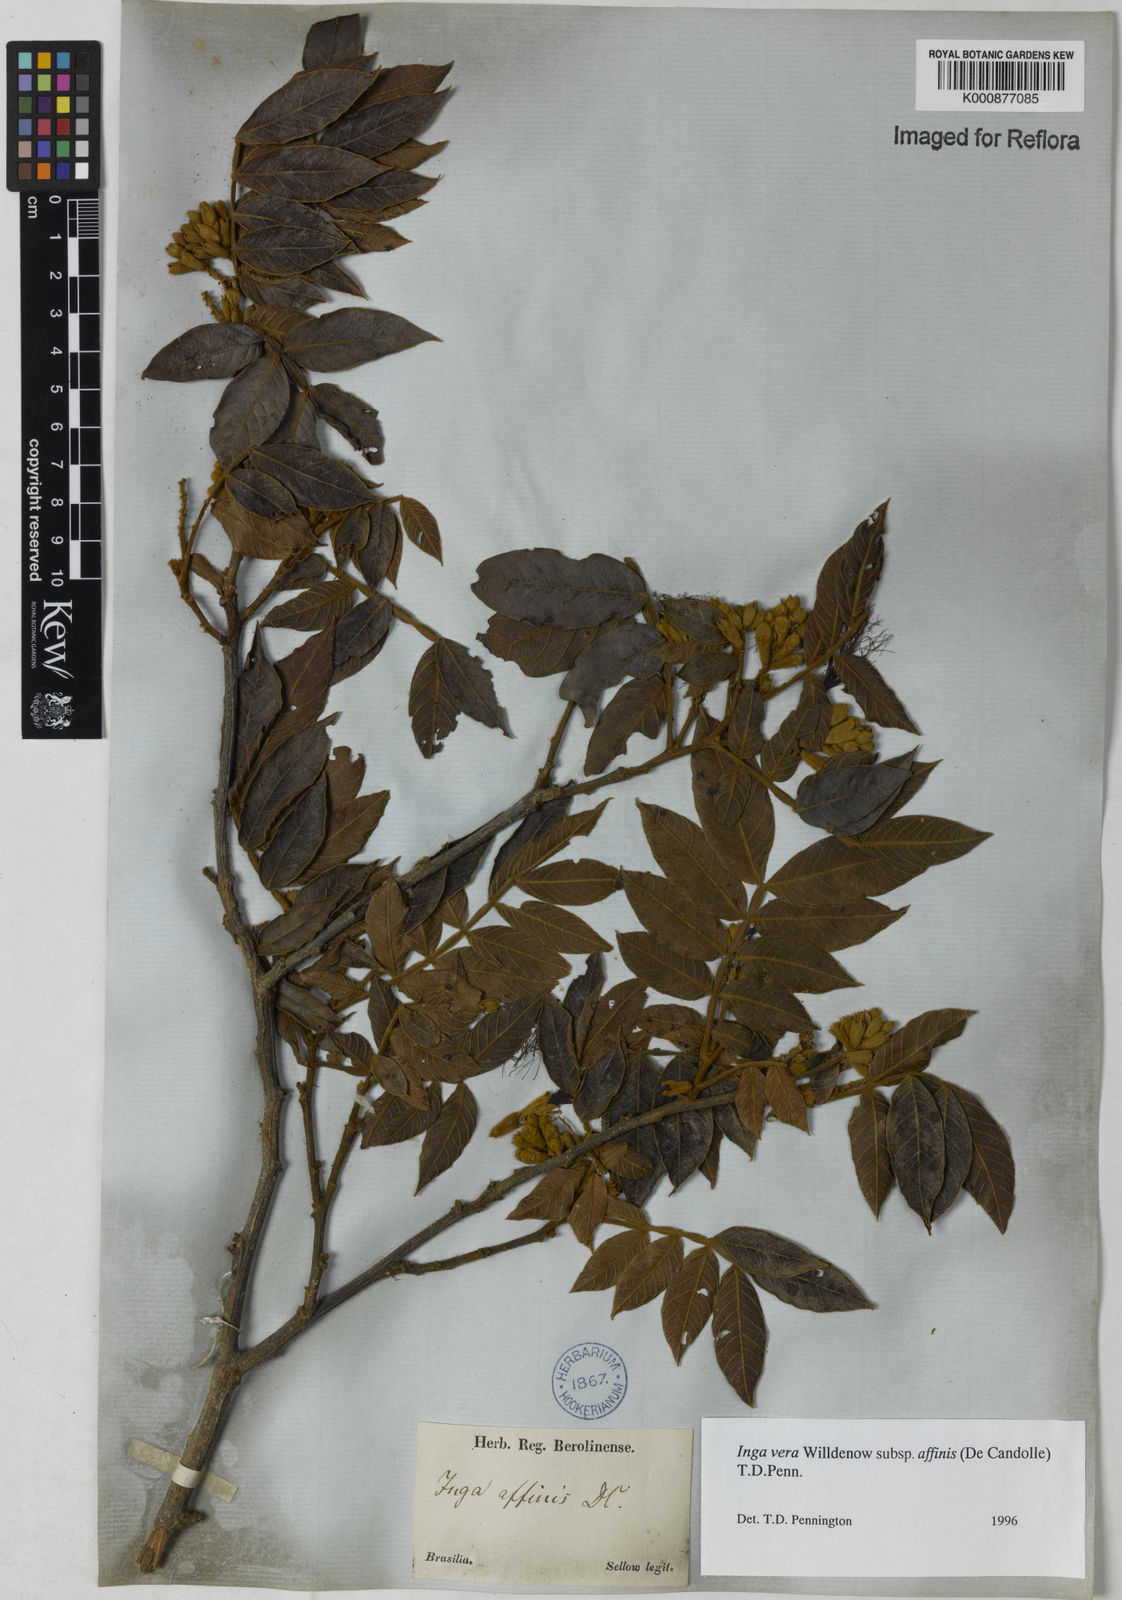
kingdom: Plantae
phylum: Tracheophyta
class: Magnoliopsida
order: Fabales
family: Fabaceae
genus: Inga
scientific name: Inga affinis
